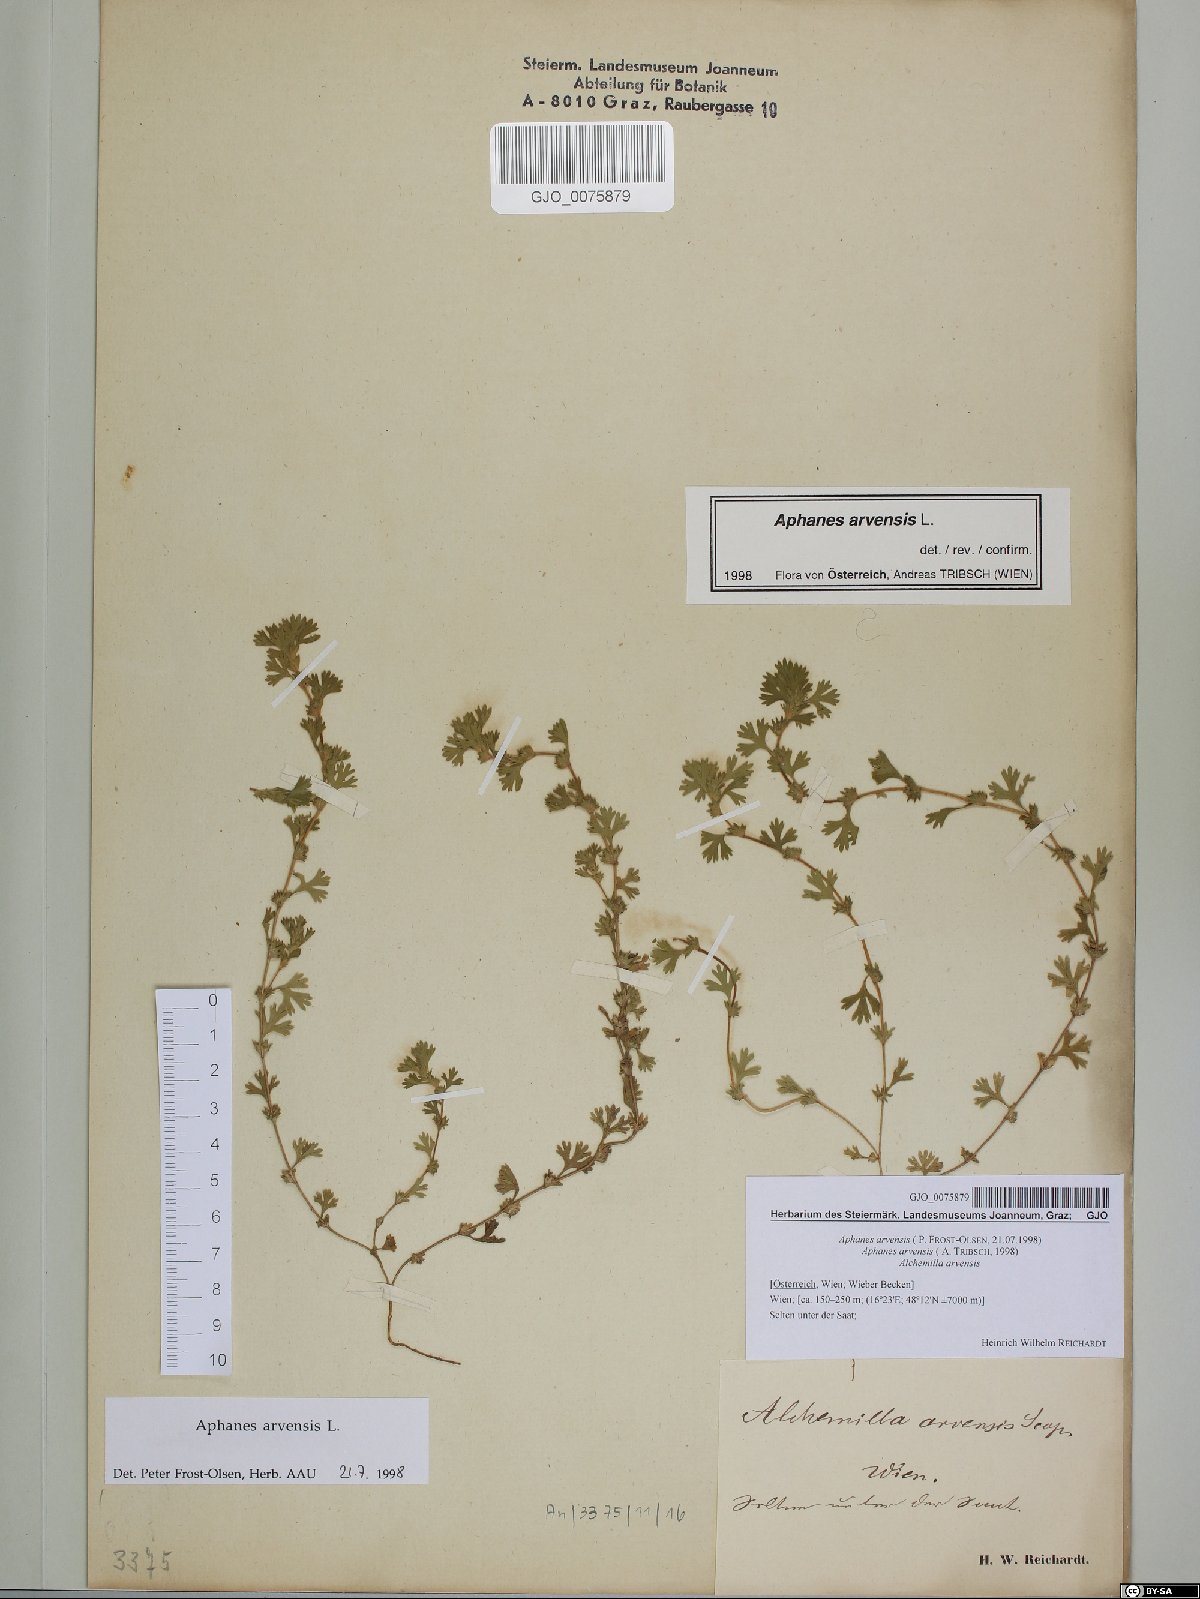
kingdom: Plantae
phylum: Tracheophyta
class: Magnoliopsida
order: Rosales
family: Rosaceae
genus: Aphanes
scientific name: Aphanes arvensis
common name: Parsley-piert
